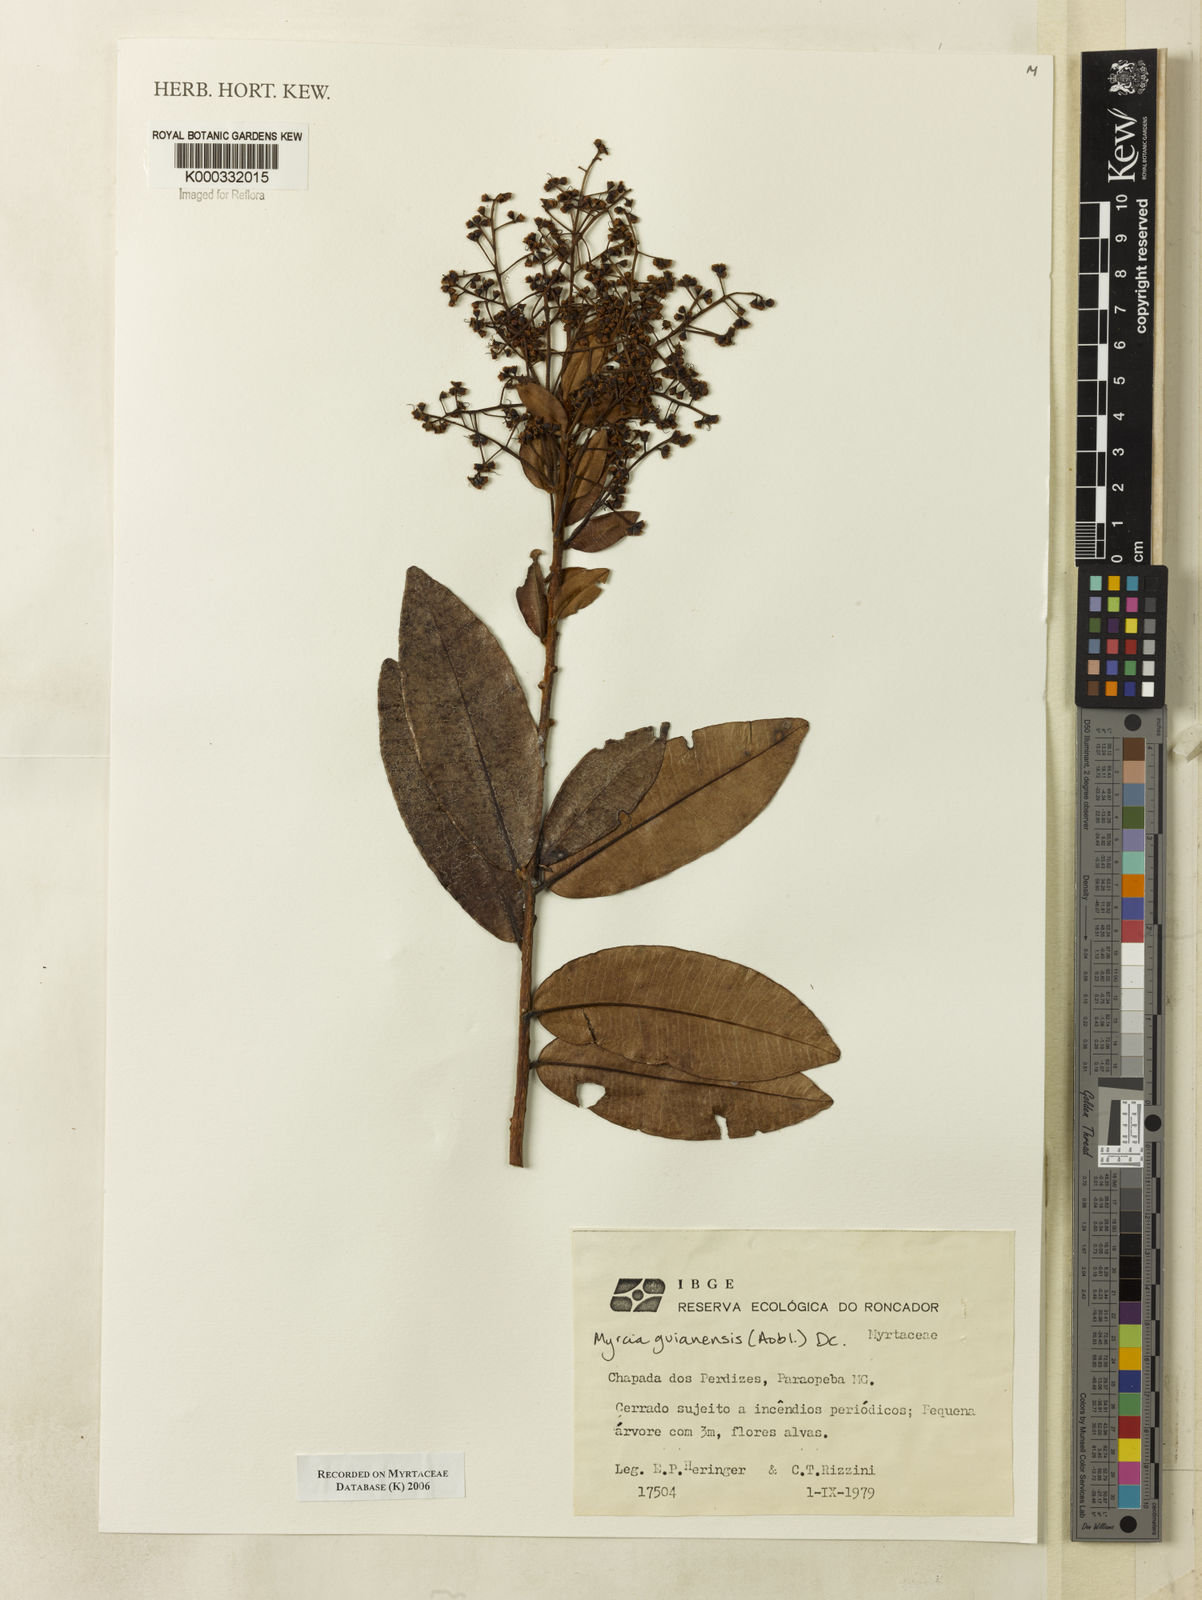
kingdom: Plantae
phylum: Tracheophyta
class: Magnoliopsida
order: Myrtales
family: Myrtaceae
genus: Myrcia
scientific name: Myrcia guianensis
